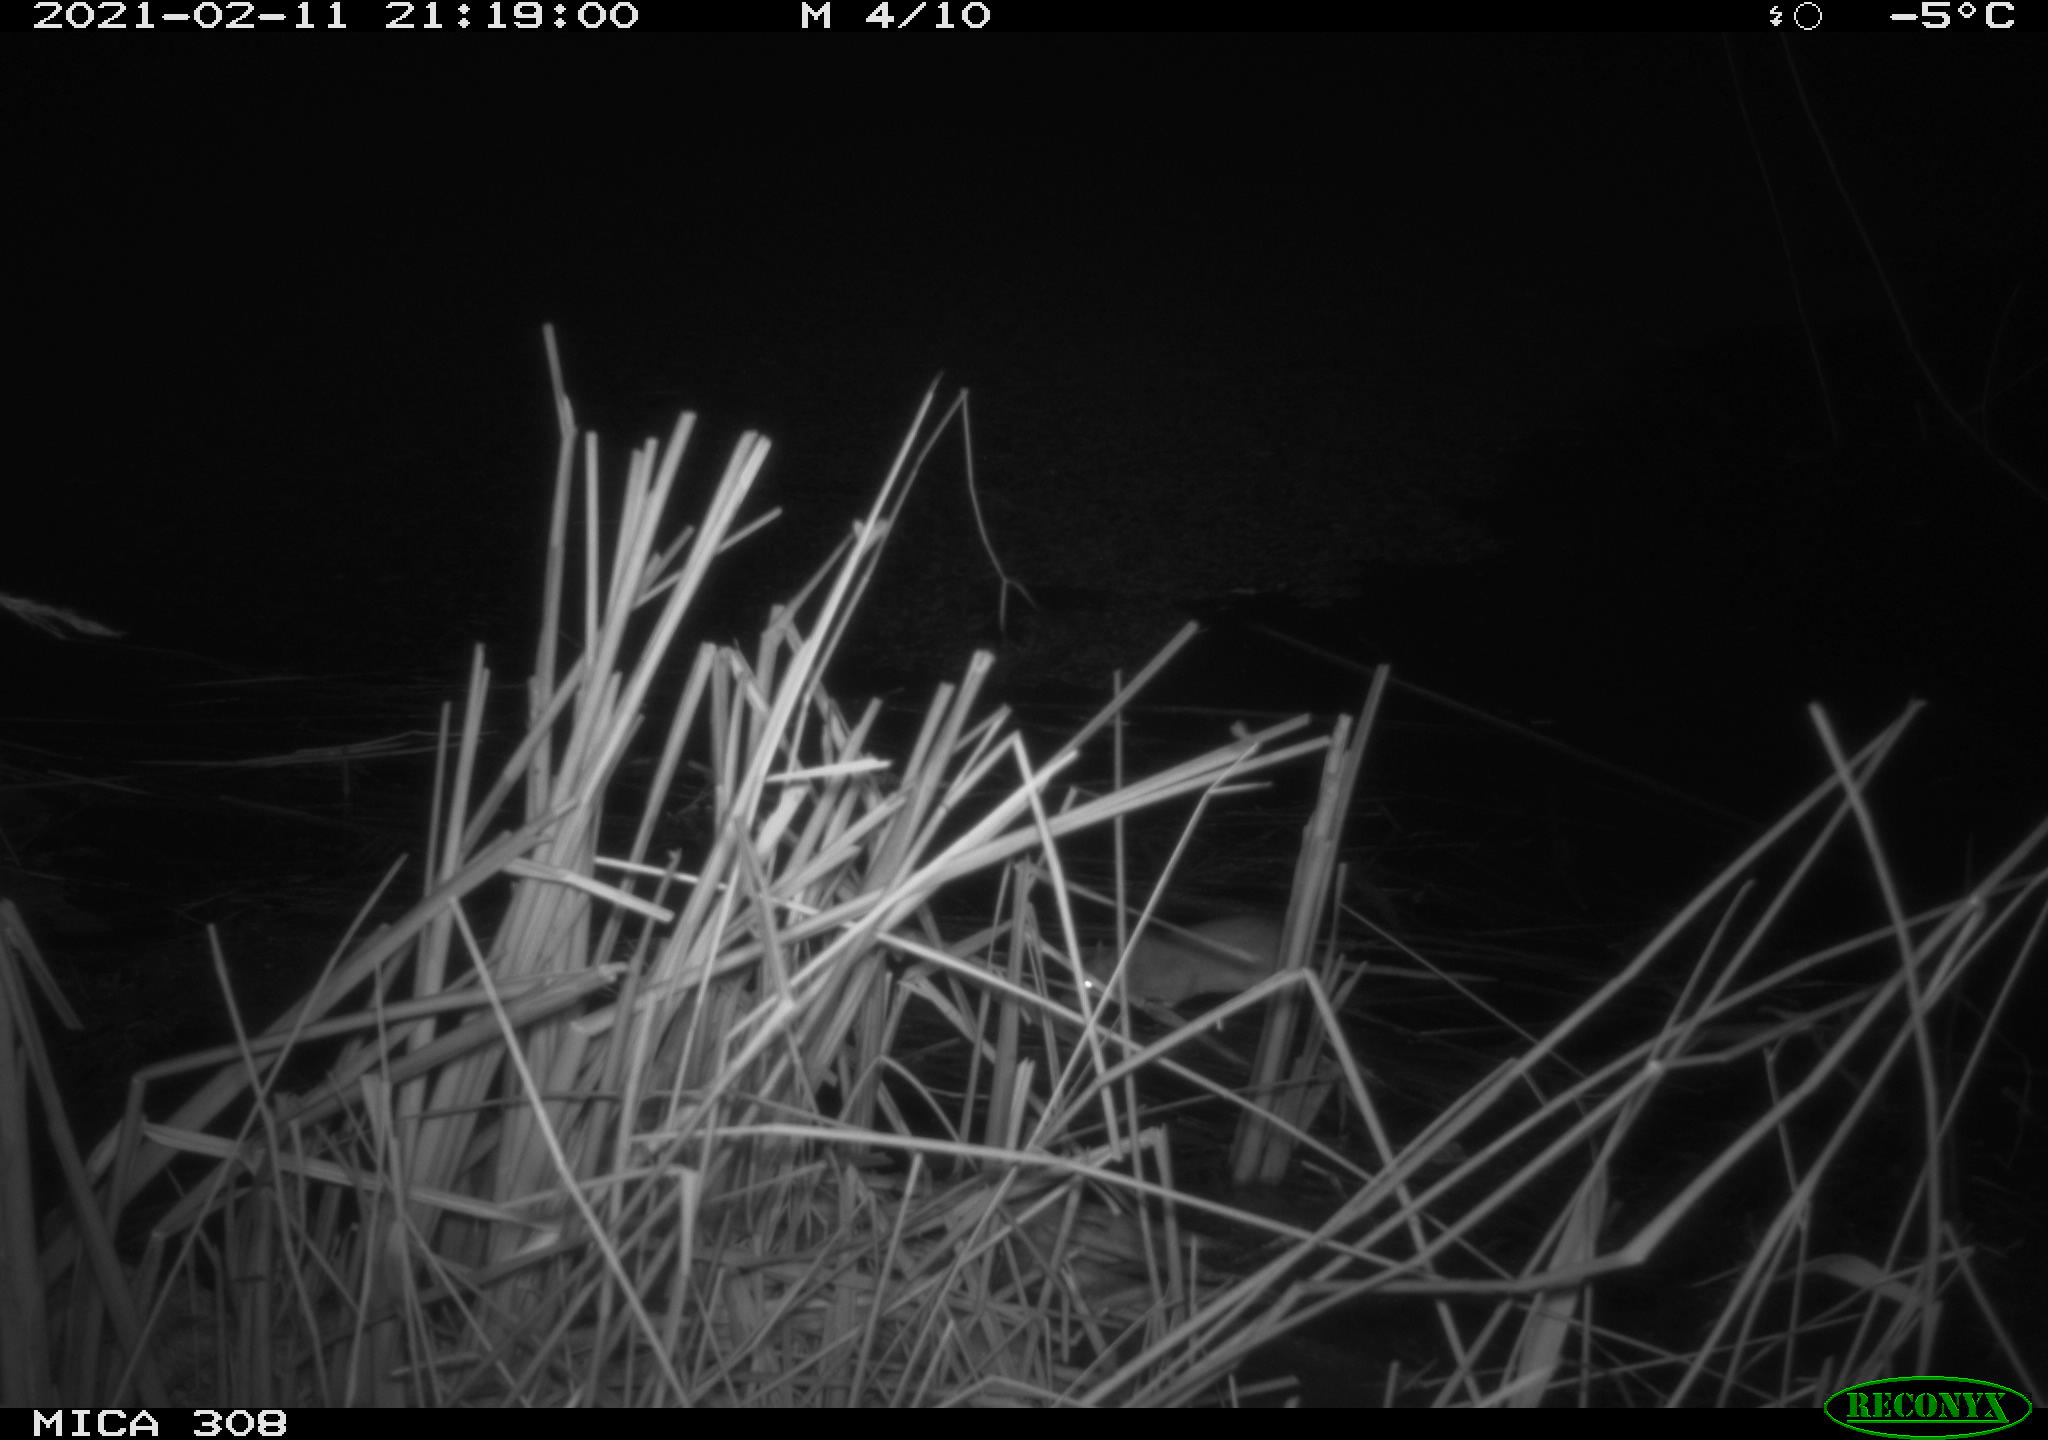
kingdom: Animalia
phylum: Chordata
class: Mammalia
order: Rodentia
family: Muridae
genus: Rattus
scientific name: Rattus norvegicus
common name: Brown rat
